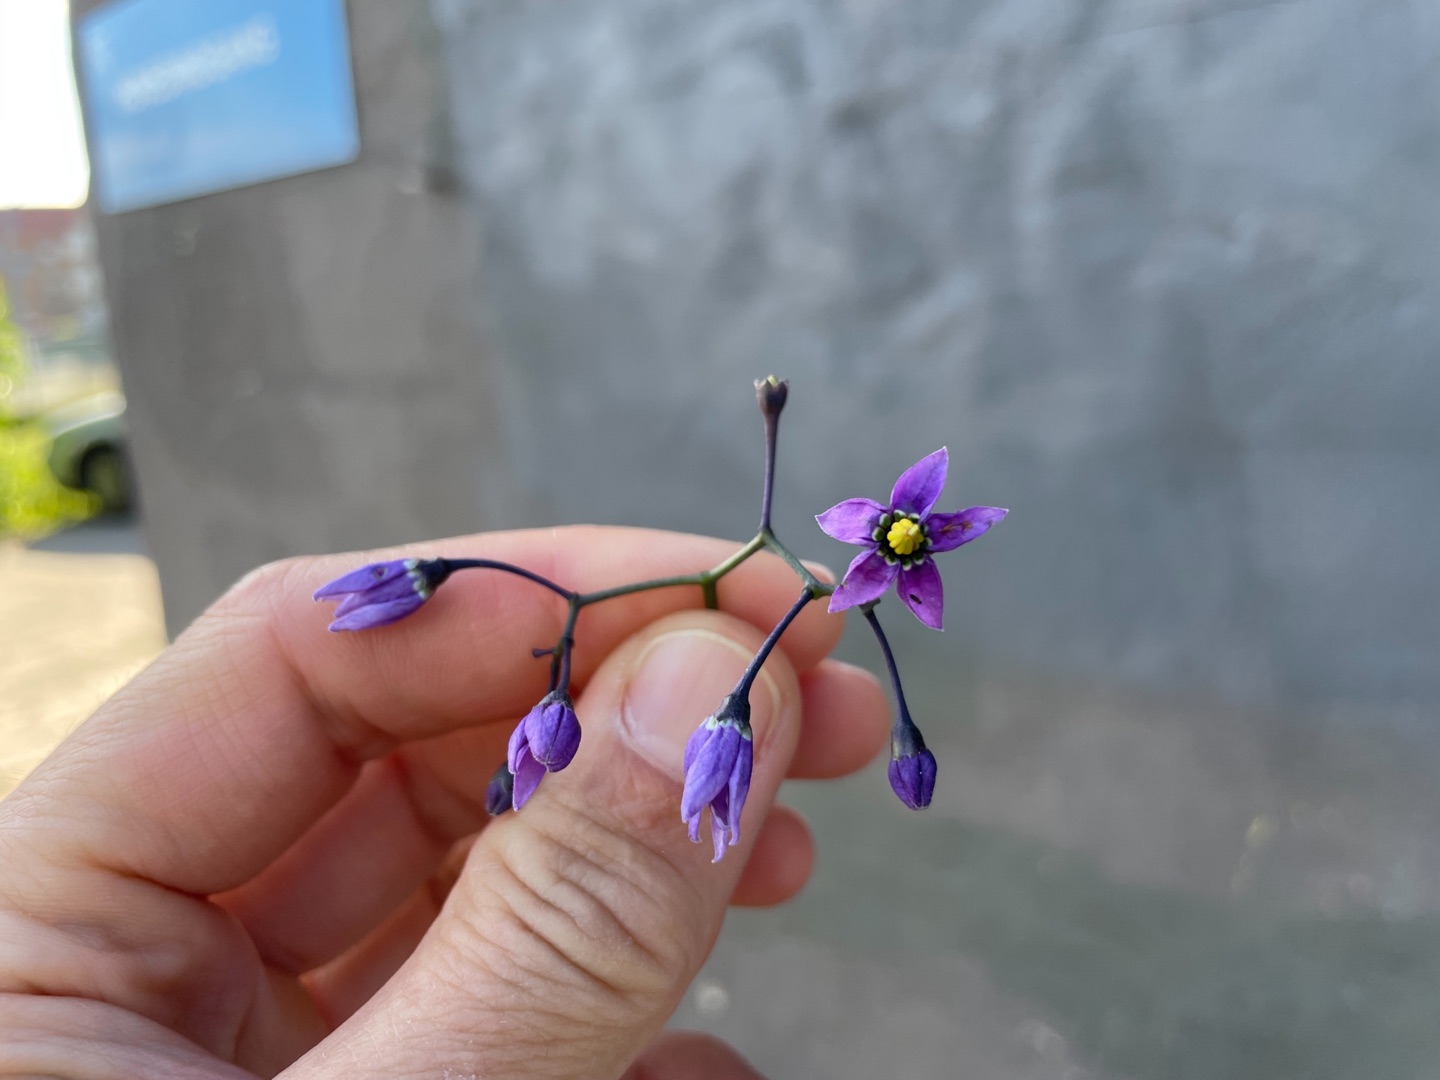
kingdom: Plantae
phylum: Tracheophyta
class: Magnoliopsida
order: Solanales
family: Solanaceae
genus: Solanum
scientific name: Solanum dulcamara
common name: Bittersød natskygge
